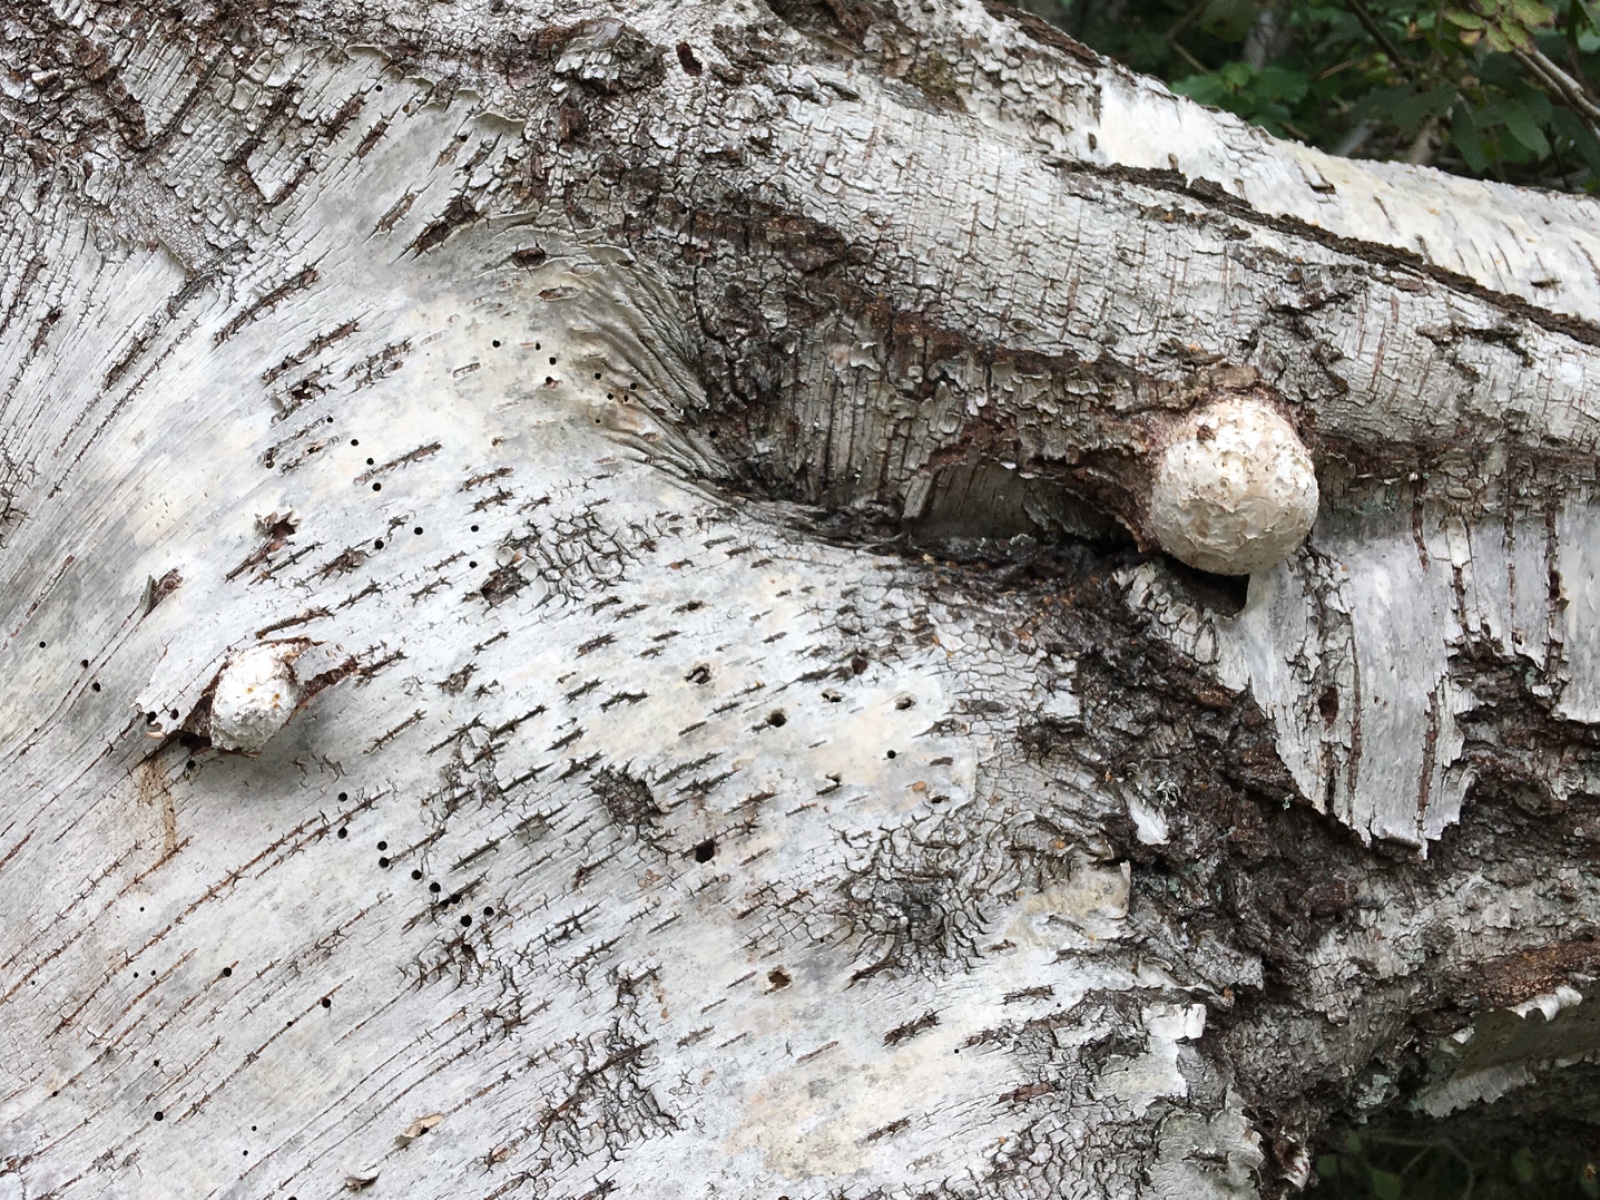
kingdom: Fungi
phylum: Basidiomycota
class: Agaricomycetes
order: Polyporales
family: Fomitopsidaceae
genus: Fomitopsis
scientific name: Fomitopsis betulina
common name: birkeporesvamp
